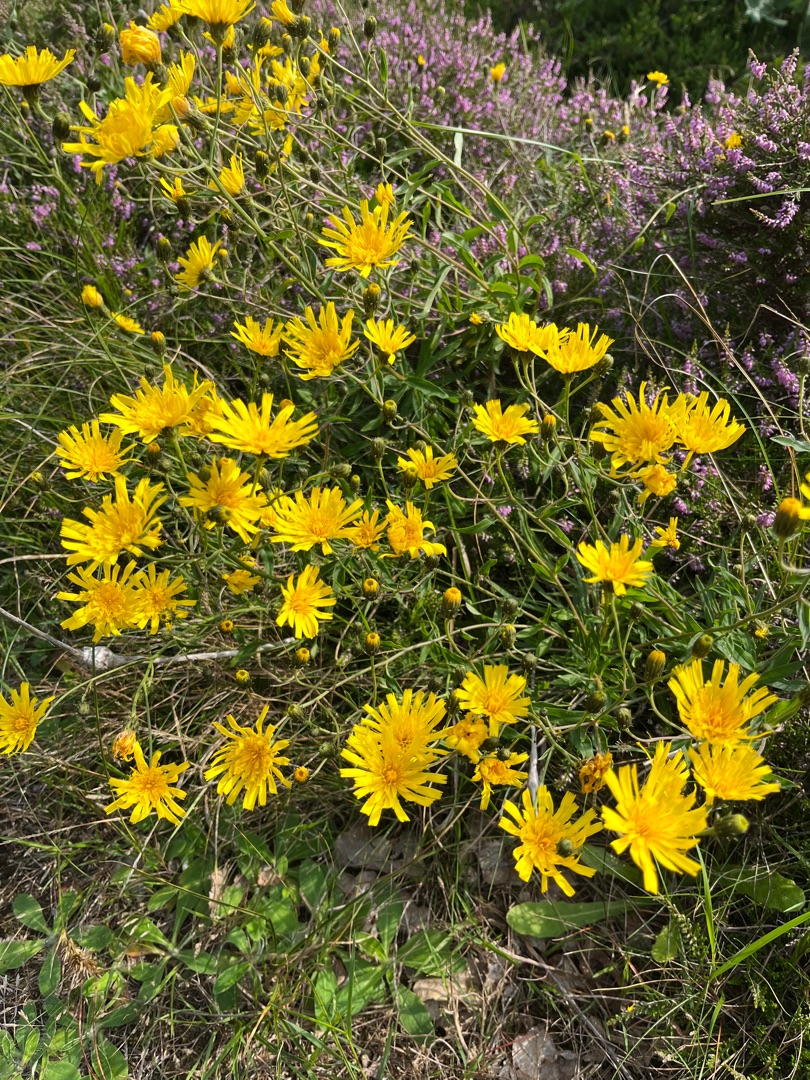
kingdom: Plantae
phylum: Tracheophyta
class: Magnoliopsida
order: Asterales
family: Asteraceae
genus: Hieracium
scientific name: Hieracium umbellatum
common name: Smalbladet høgeurt
